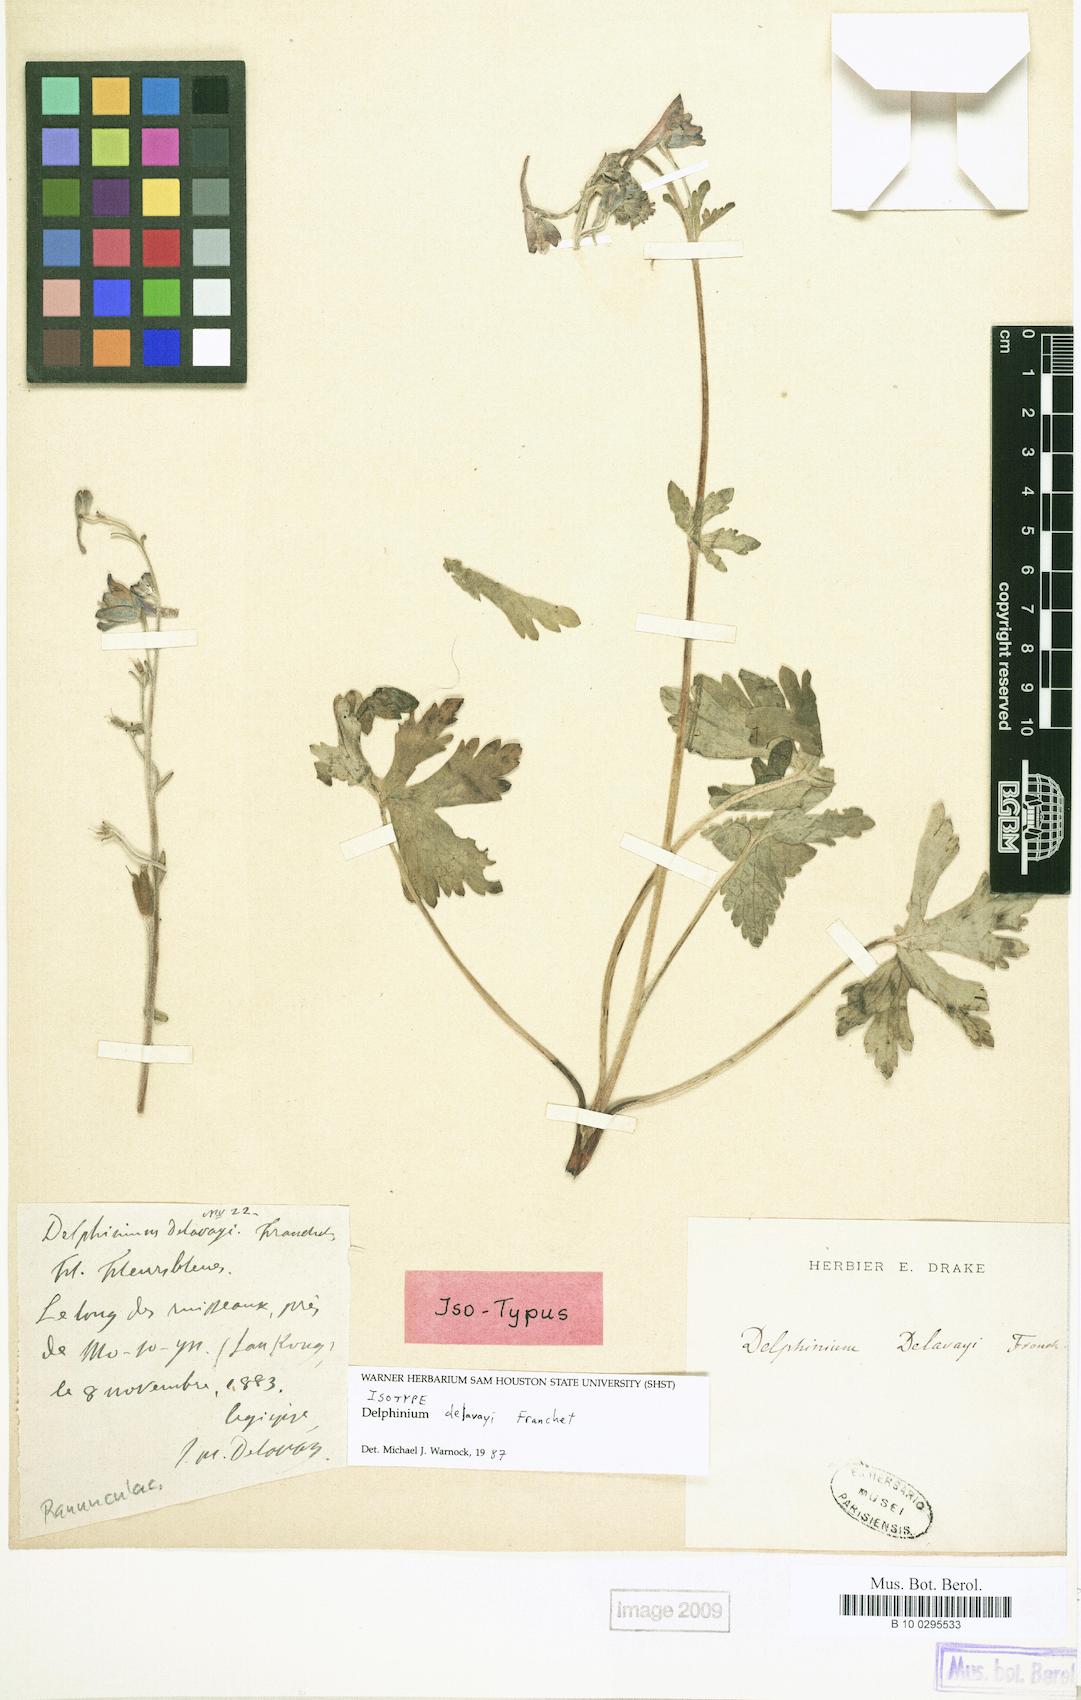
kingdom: Plantae
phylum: Tracheophyta
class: Magnoliopsida
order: Ranunculales
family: Ranunculaceae
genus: Delphinium
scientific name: Delphinium delavayi
